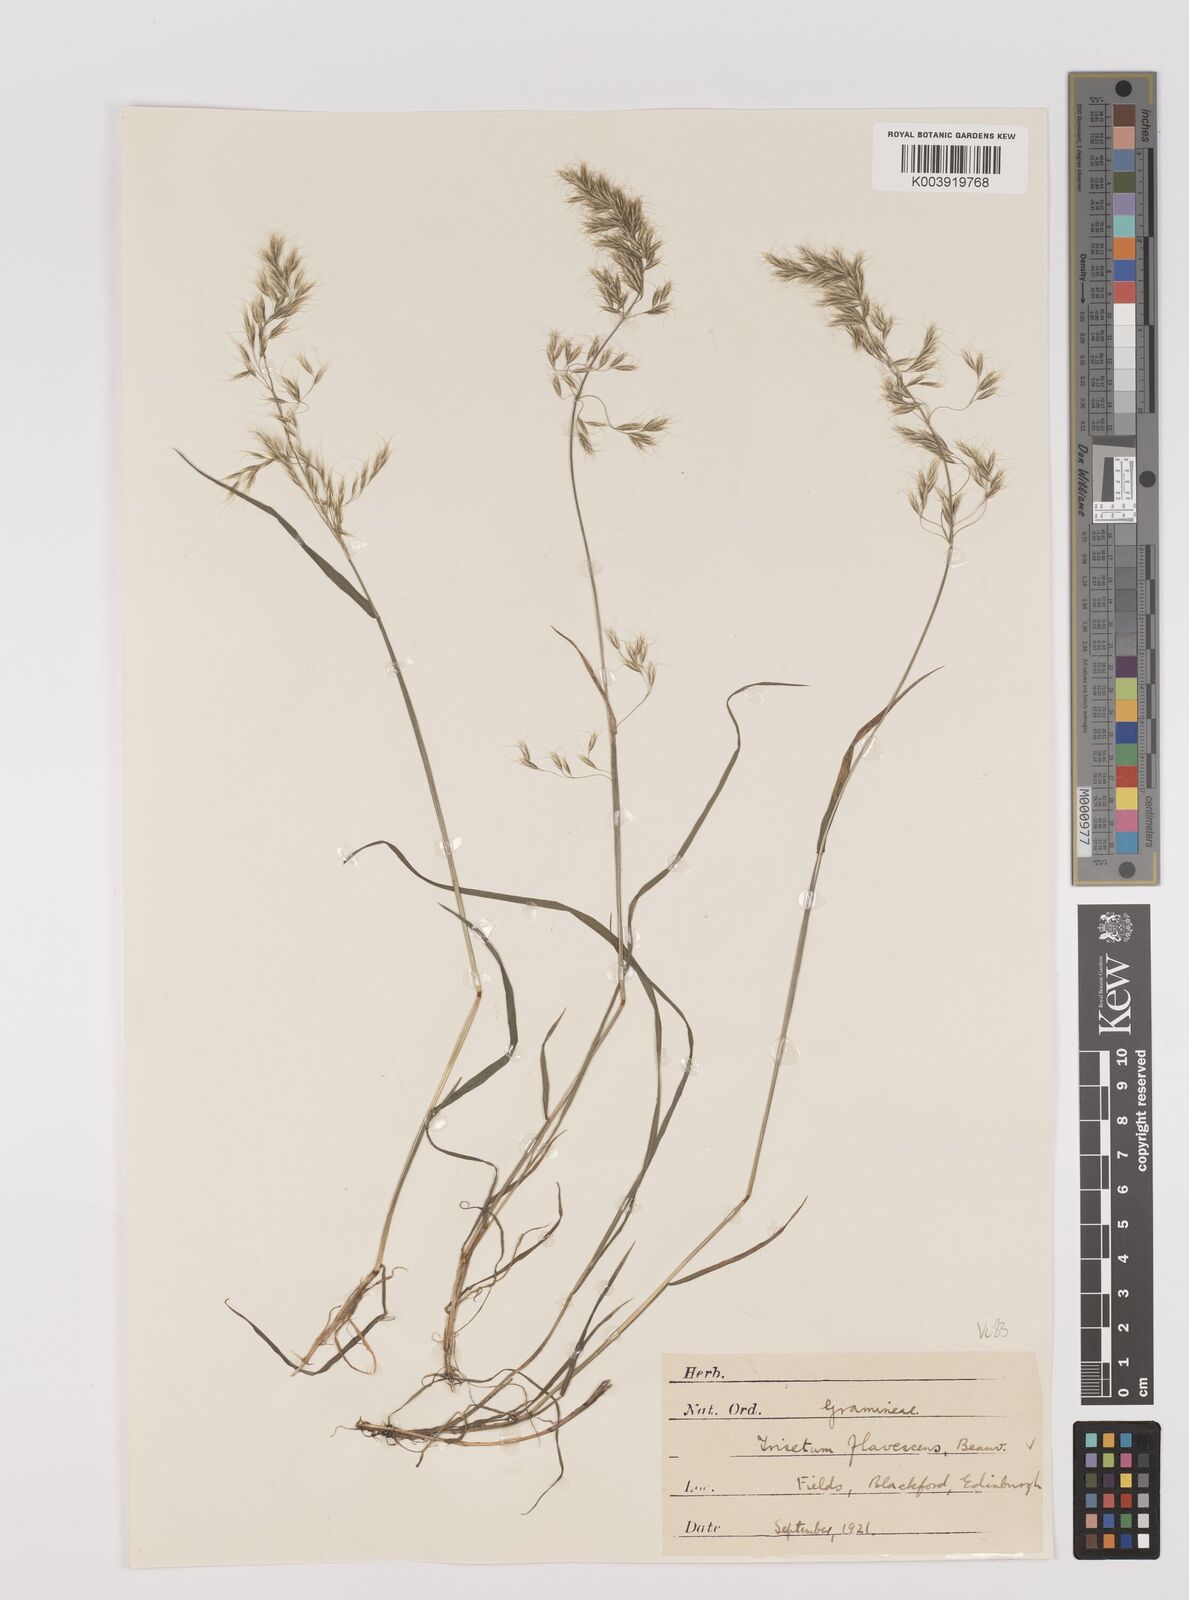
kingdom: Plantae
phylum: Tracheophyta
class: Liliopsida
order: Poales
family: Poaceae
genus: Trisetum
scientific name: Trisetum flavescens
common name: Yellow oat-grass
